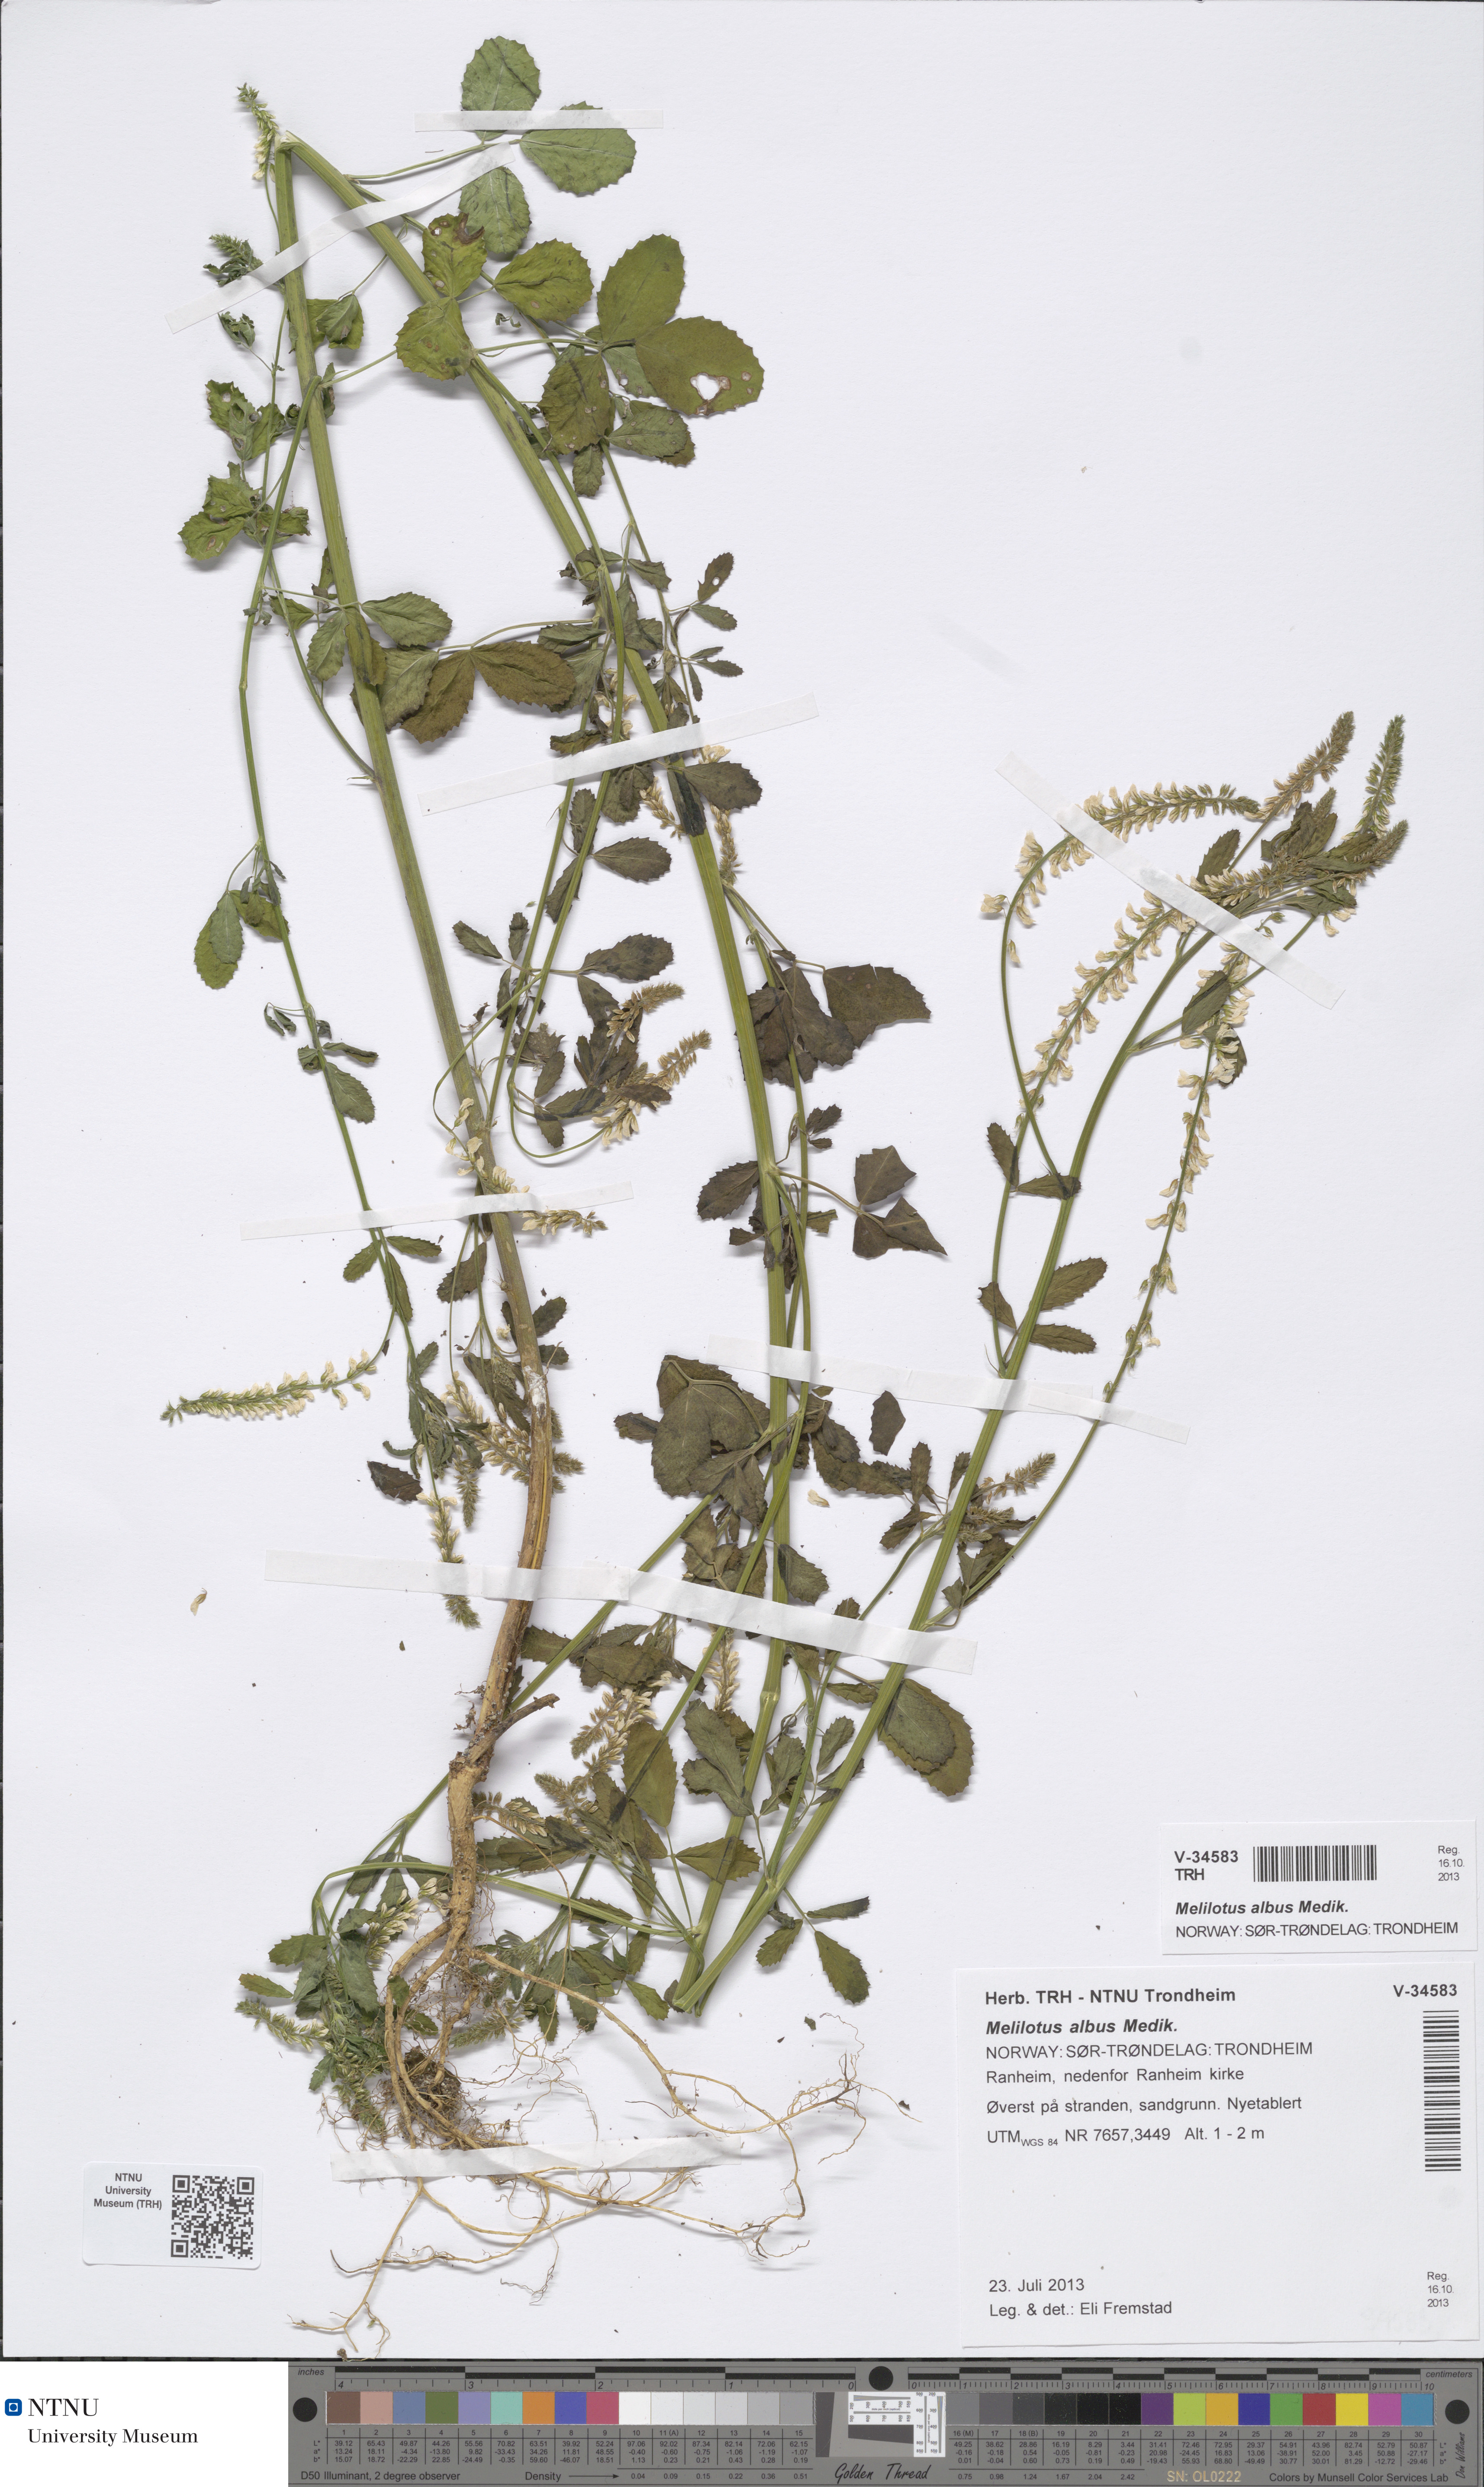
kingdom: Plantae
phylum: Tracheophyta
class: Magnoliopsida
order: Fabales
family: Fabaceae
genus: Melilotus
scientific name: Melilotus albus
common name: White melilot
